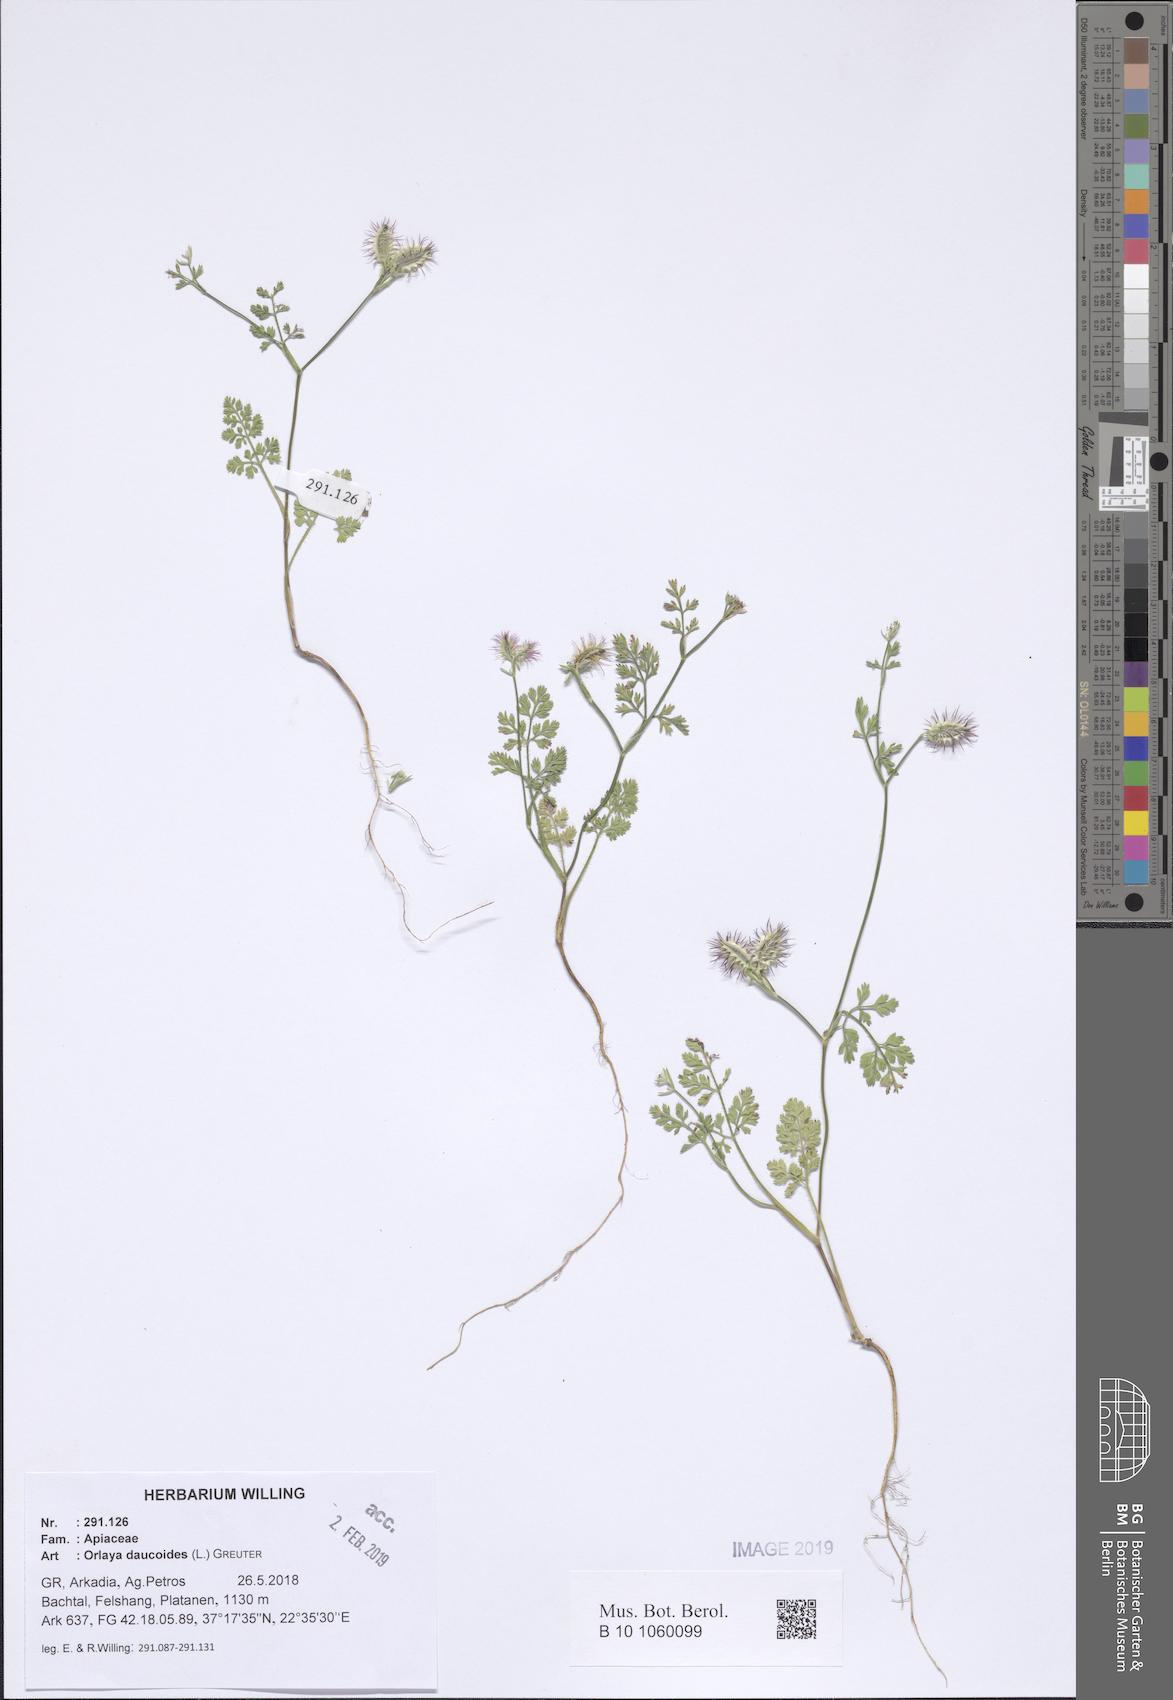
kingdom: Plantae
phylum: Tracheophyta
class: Magnoliopsida
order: Apiales
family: Apiaceae
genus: Orlaya
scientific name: Orlaya daucoides
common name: Flat-fruit orlaya
